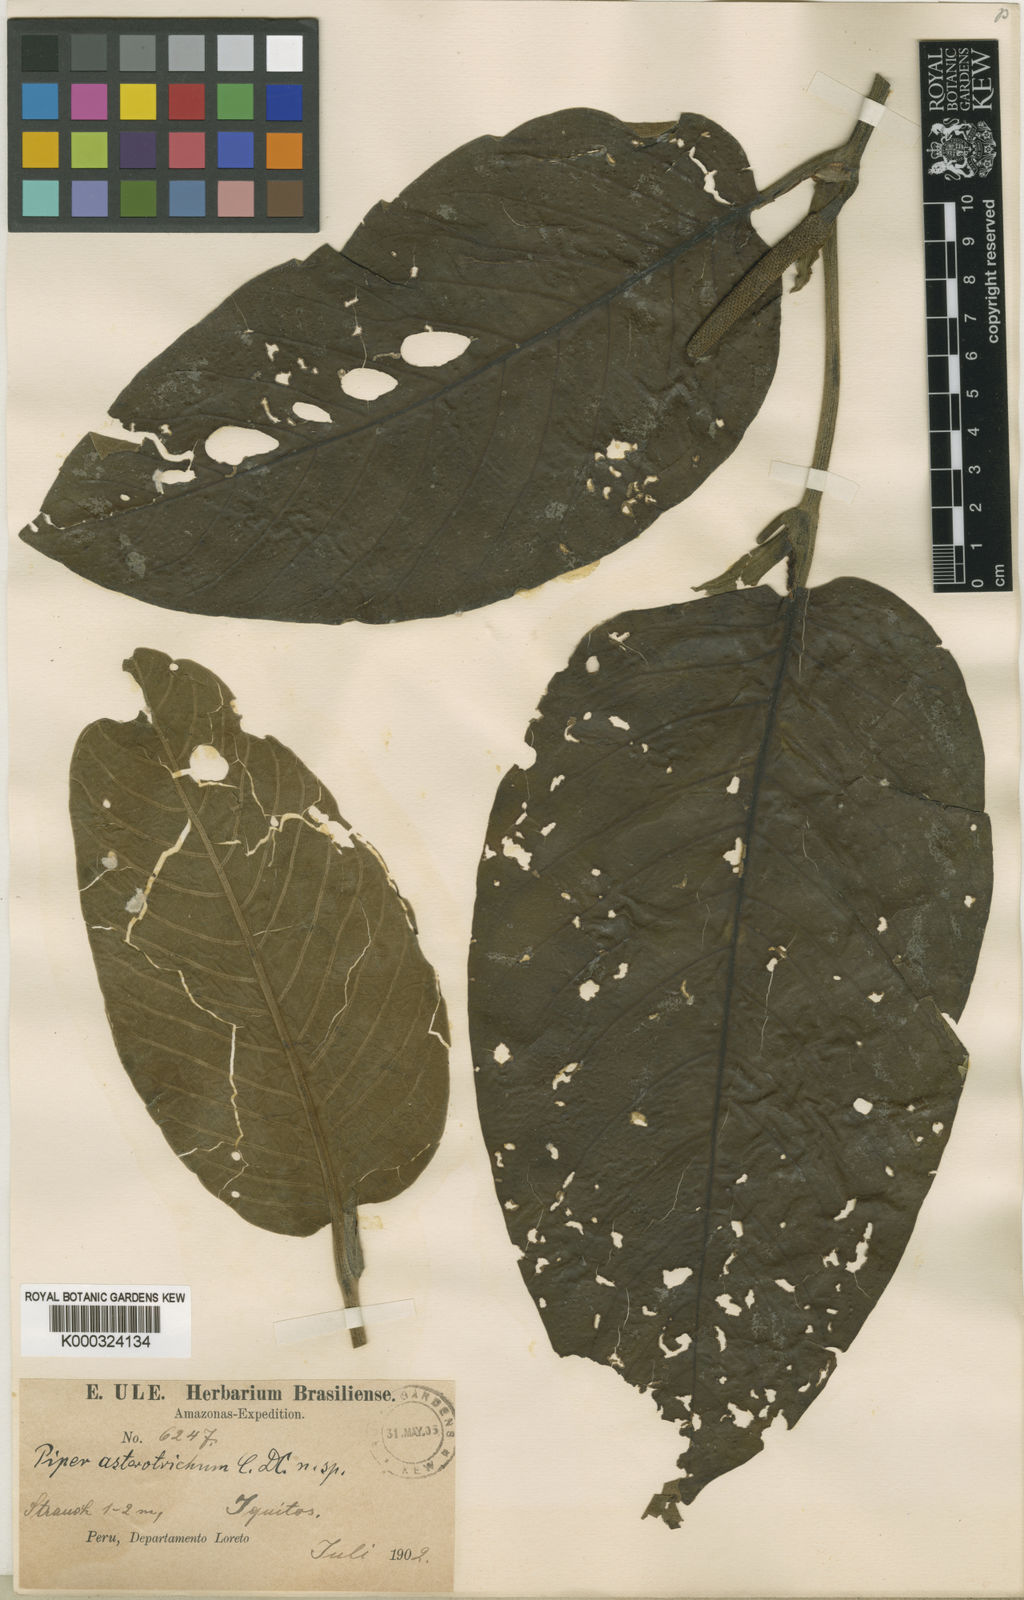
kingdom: Plantae
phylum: Tracheophyta
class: Magnoliopsida
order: Piperales
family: Piperaceae
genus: Piper
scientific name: Piper asterotrichum
